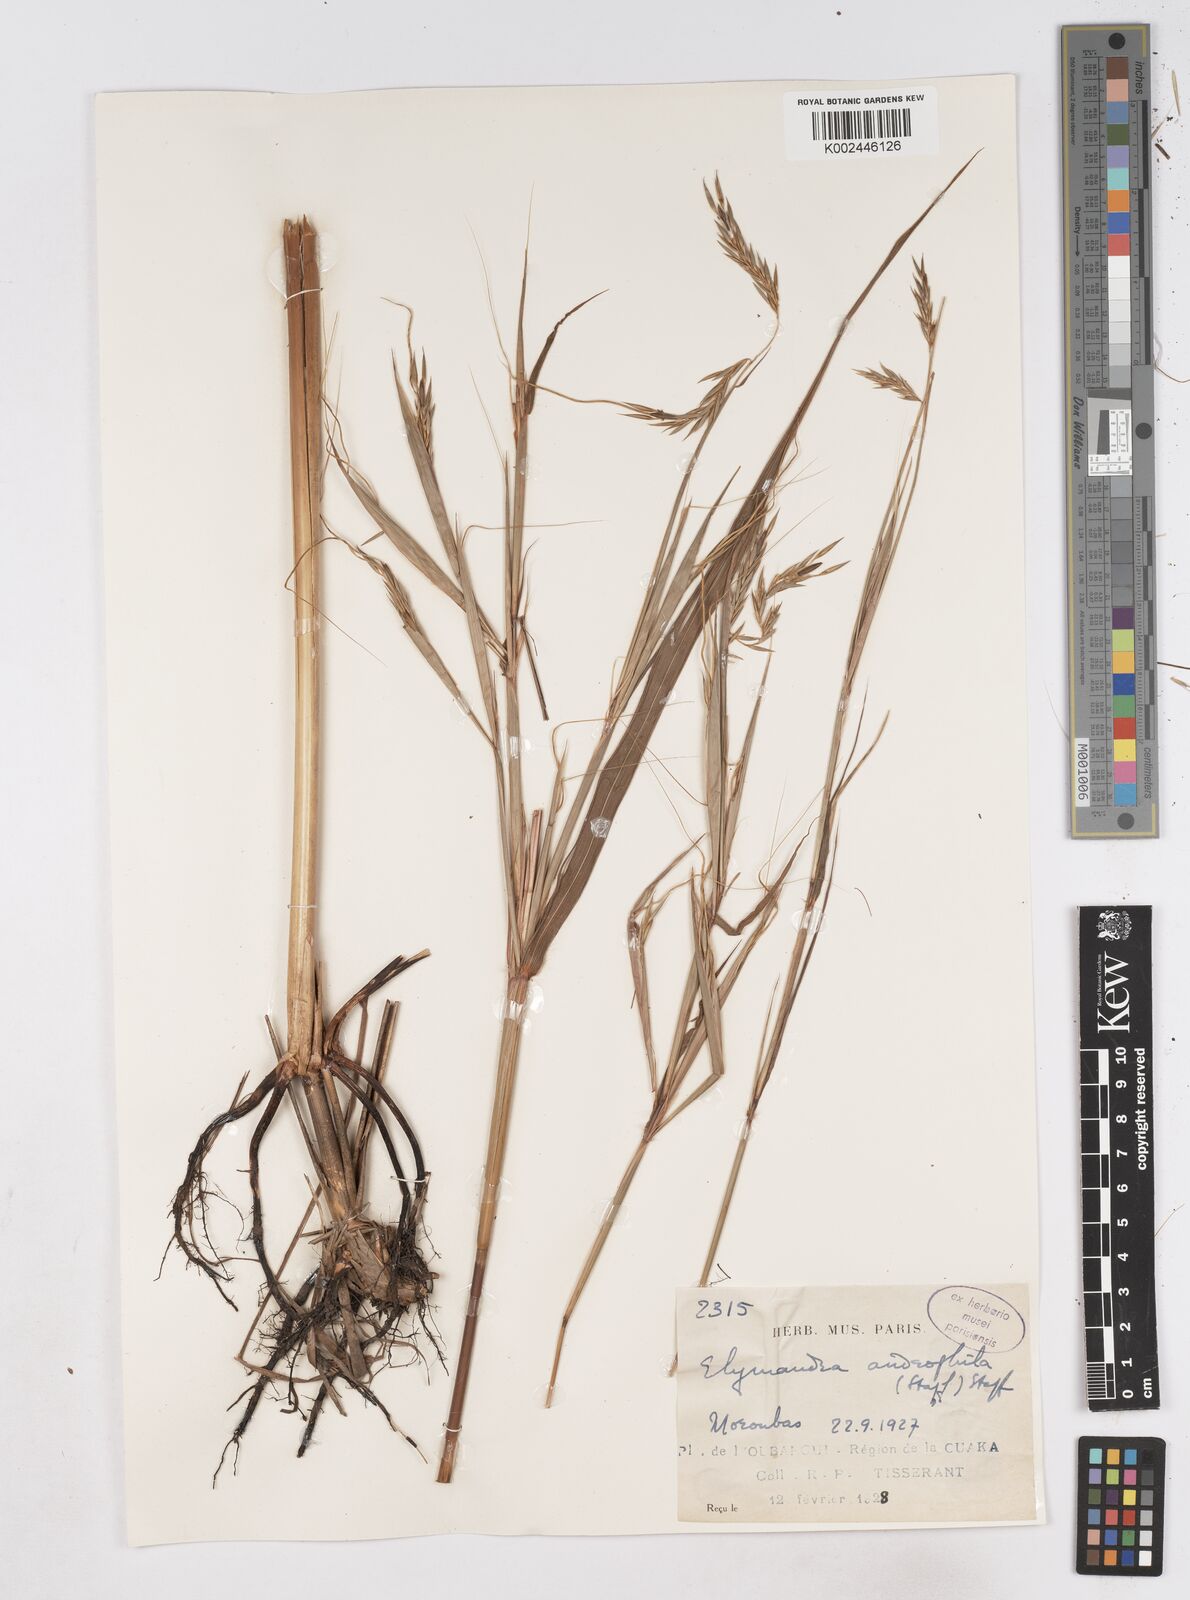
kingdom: Plantae
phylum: Tracheophyta
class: Liliopsida
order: Poales
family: Poaceae
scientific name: Poaceae
